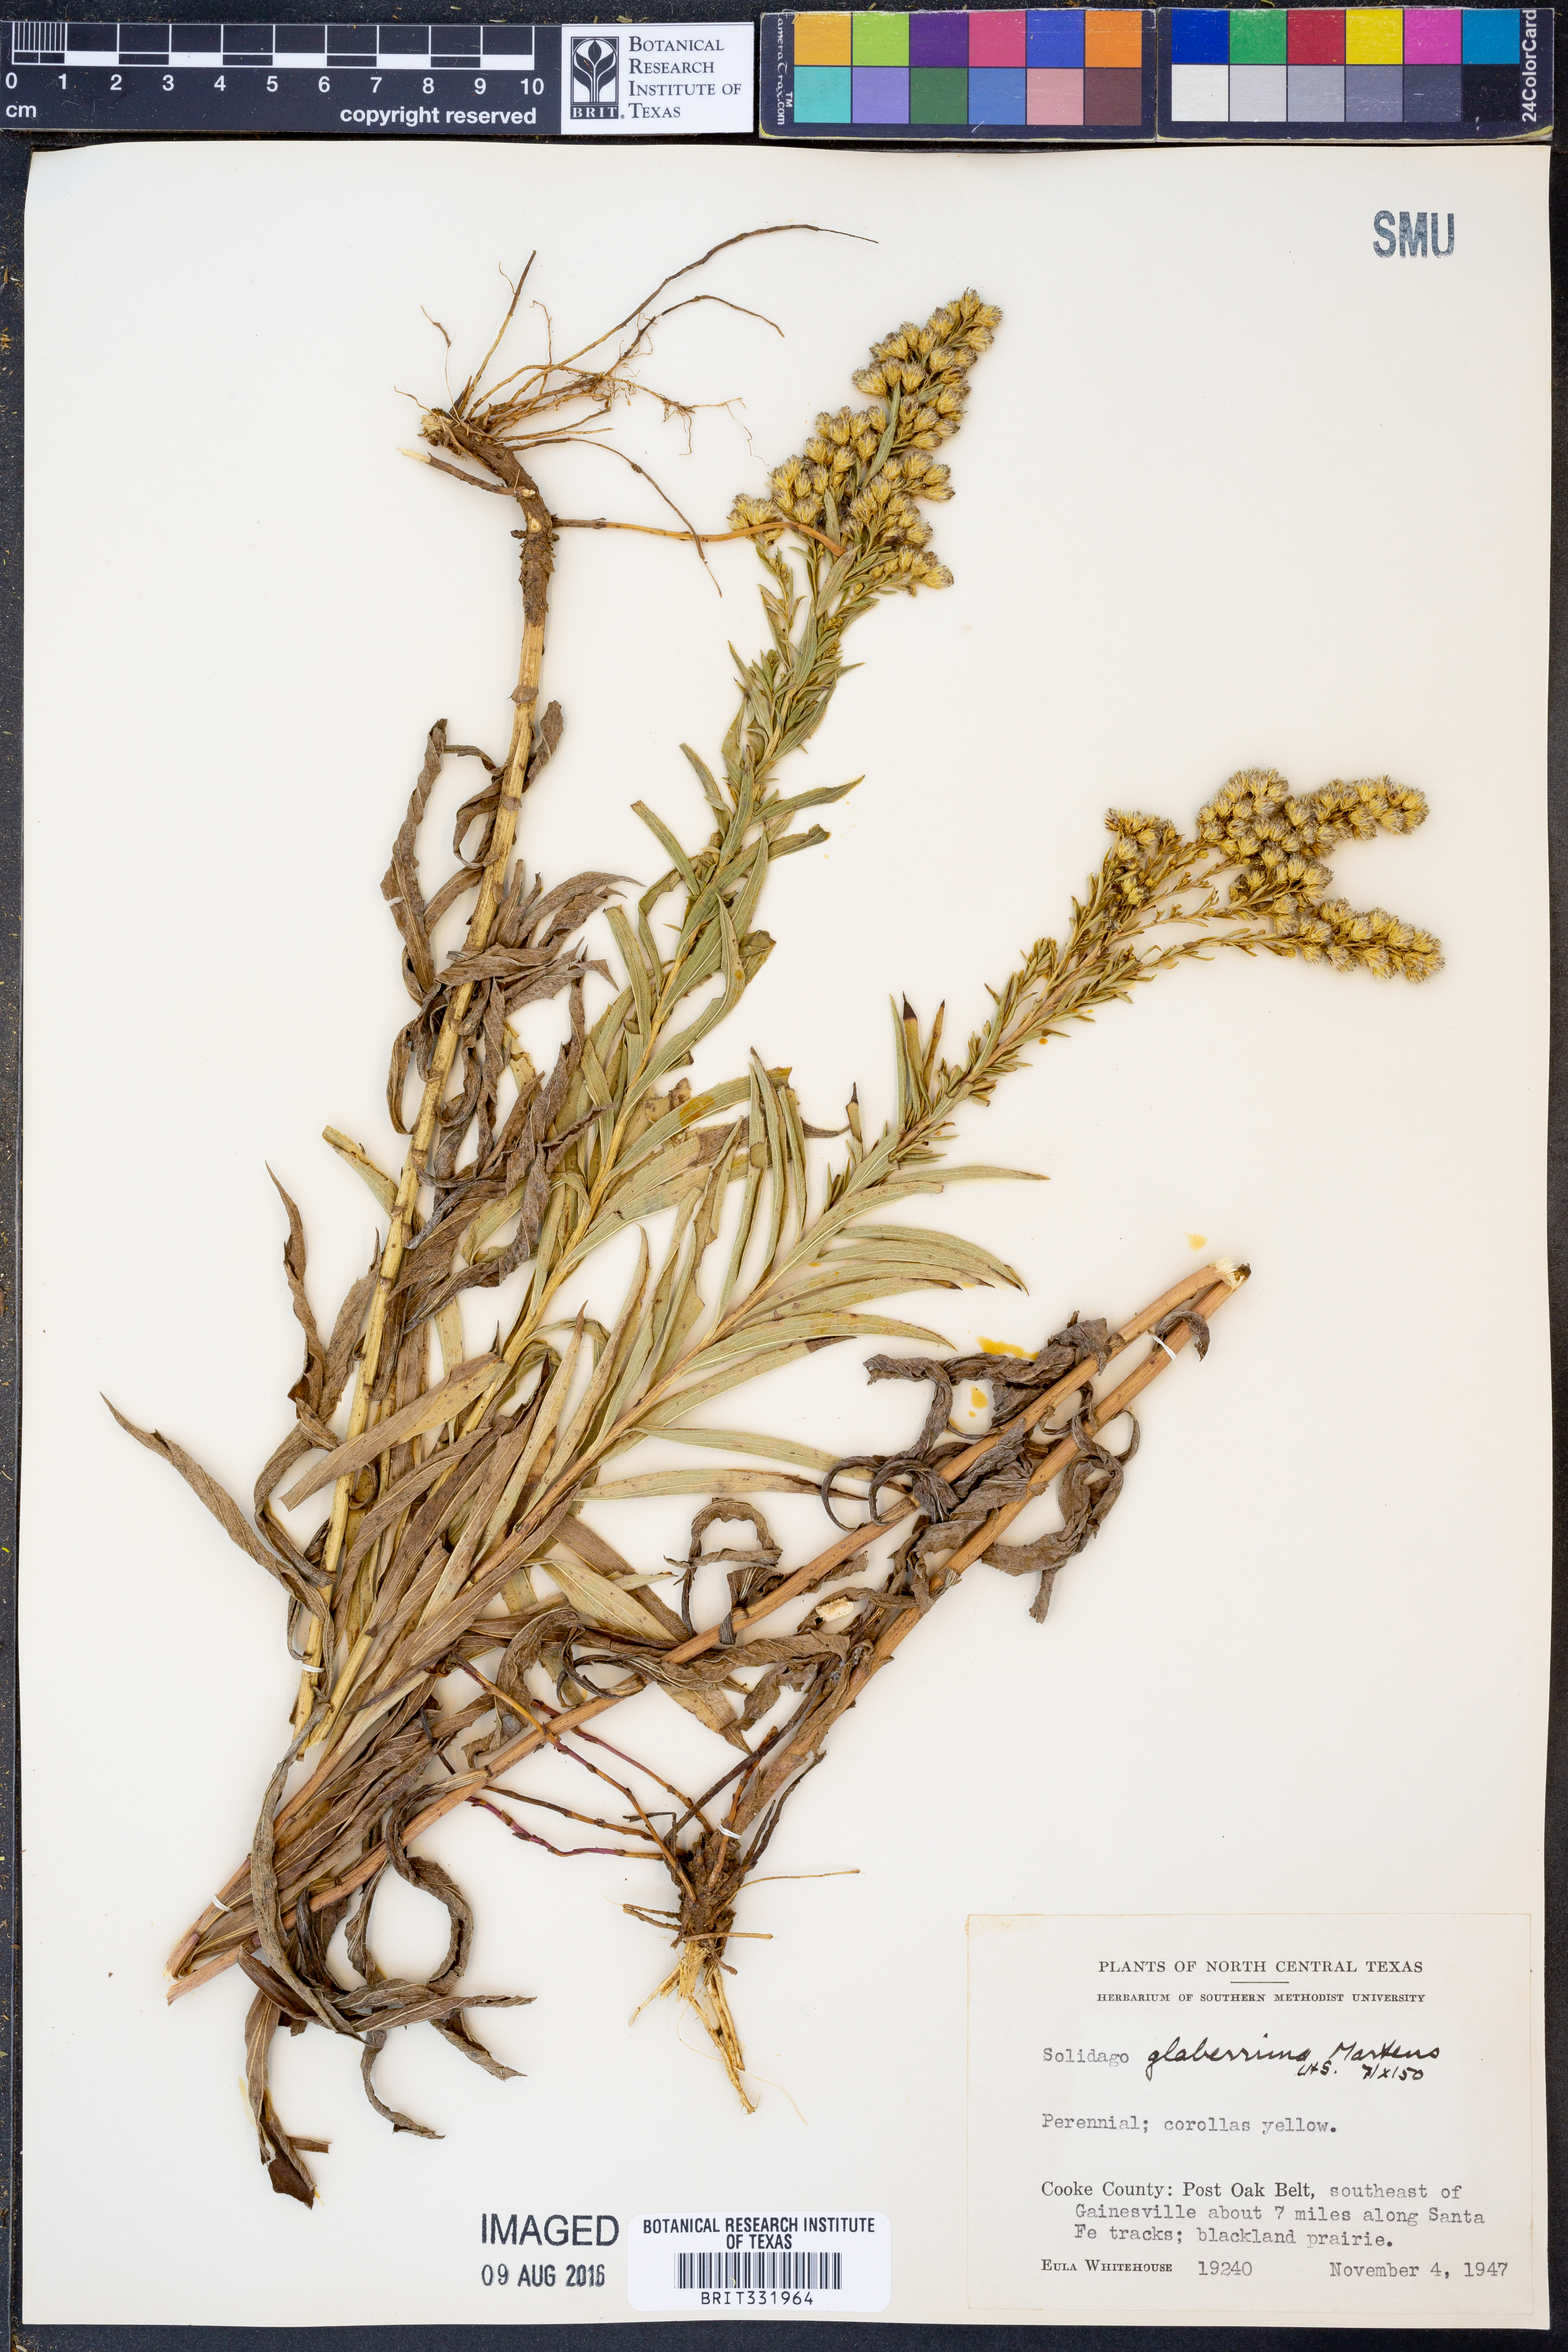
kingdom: Plantae
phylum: Tracheophyta
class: Magnoliopsida
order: Asterales
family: Asteraceae
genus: Solidago
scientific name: Solidago missouriensis
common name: Prairie goldenrod
